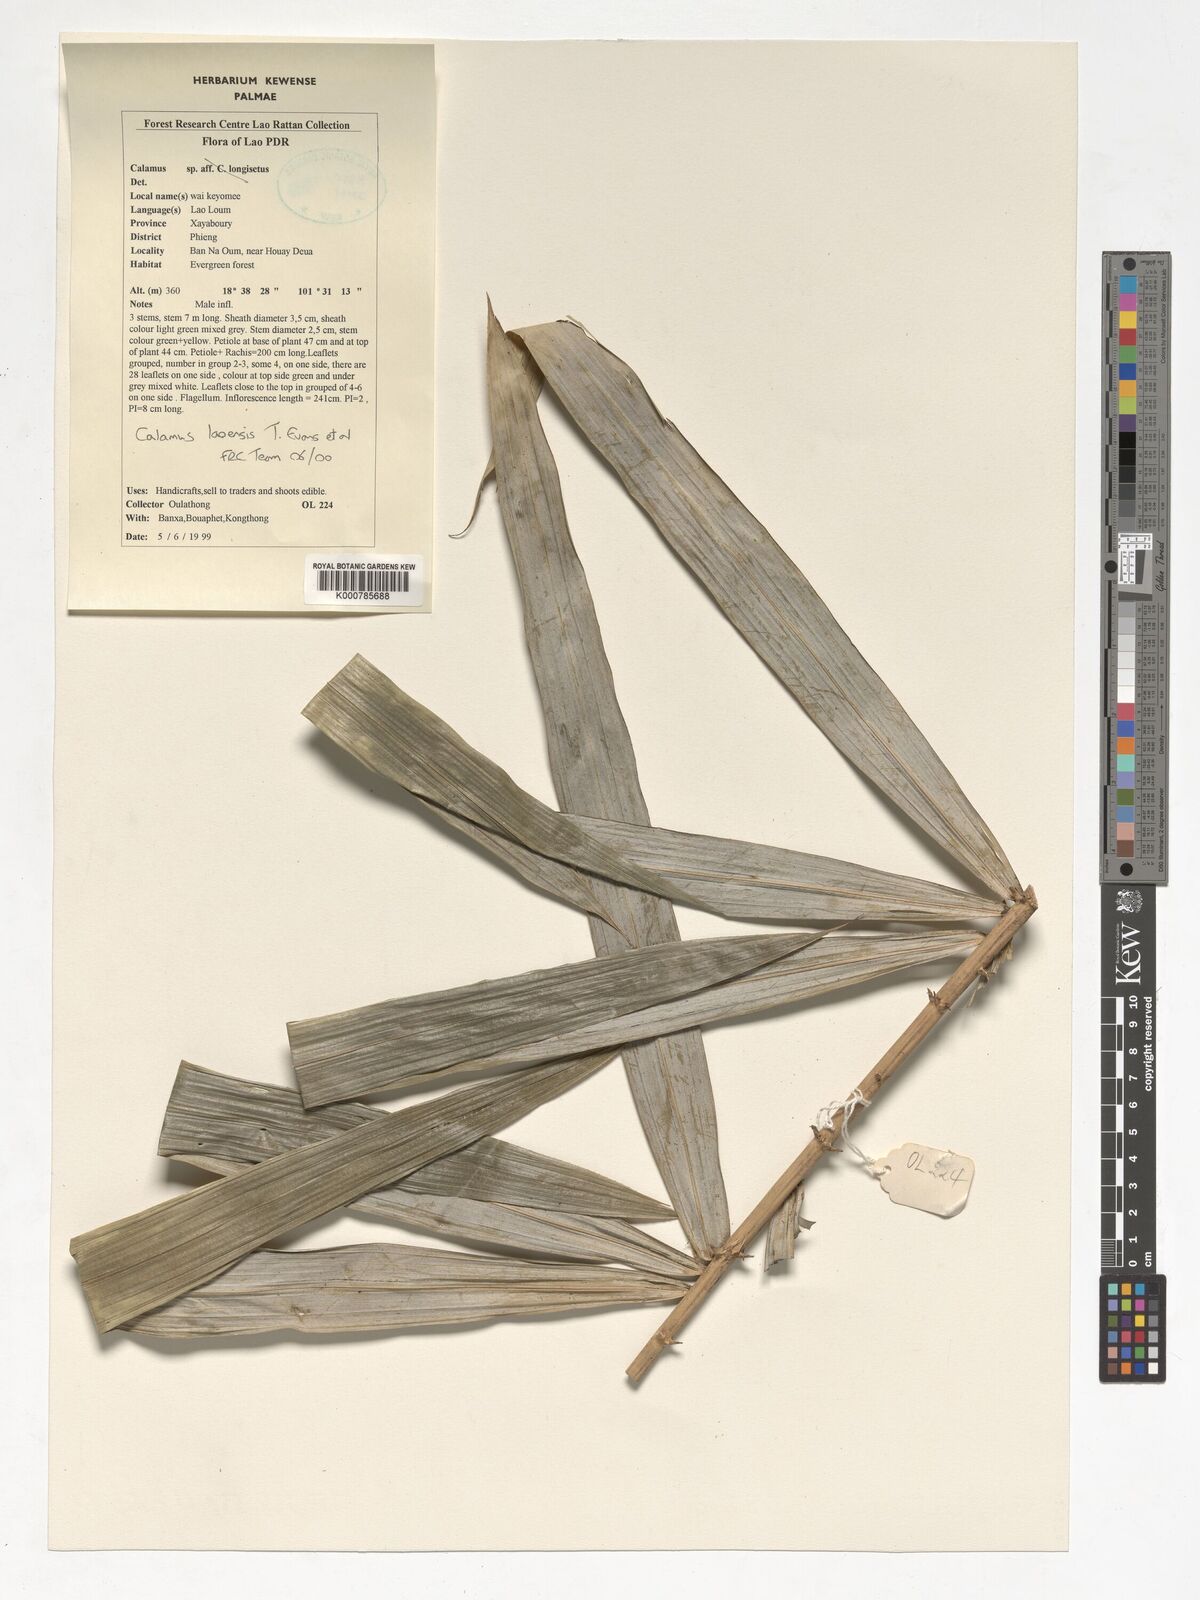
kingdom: Plantae
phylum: Tracheophyta
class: Liliopsida
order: Arecales
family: Arecaceae
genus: Calamus
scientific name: Calamus laoensis
